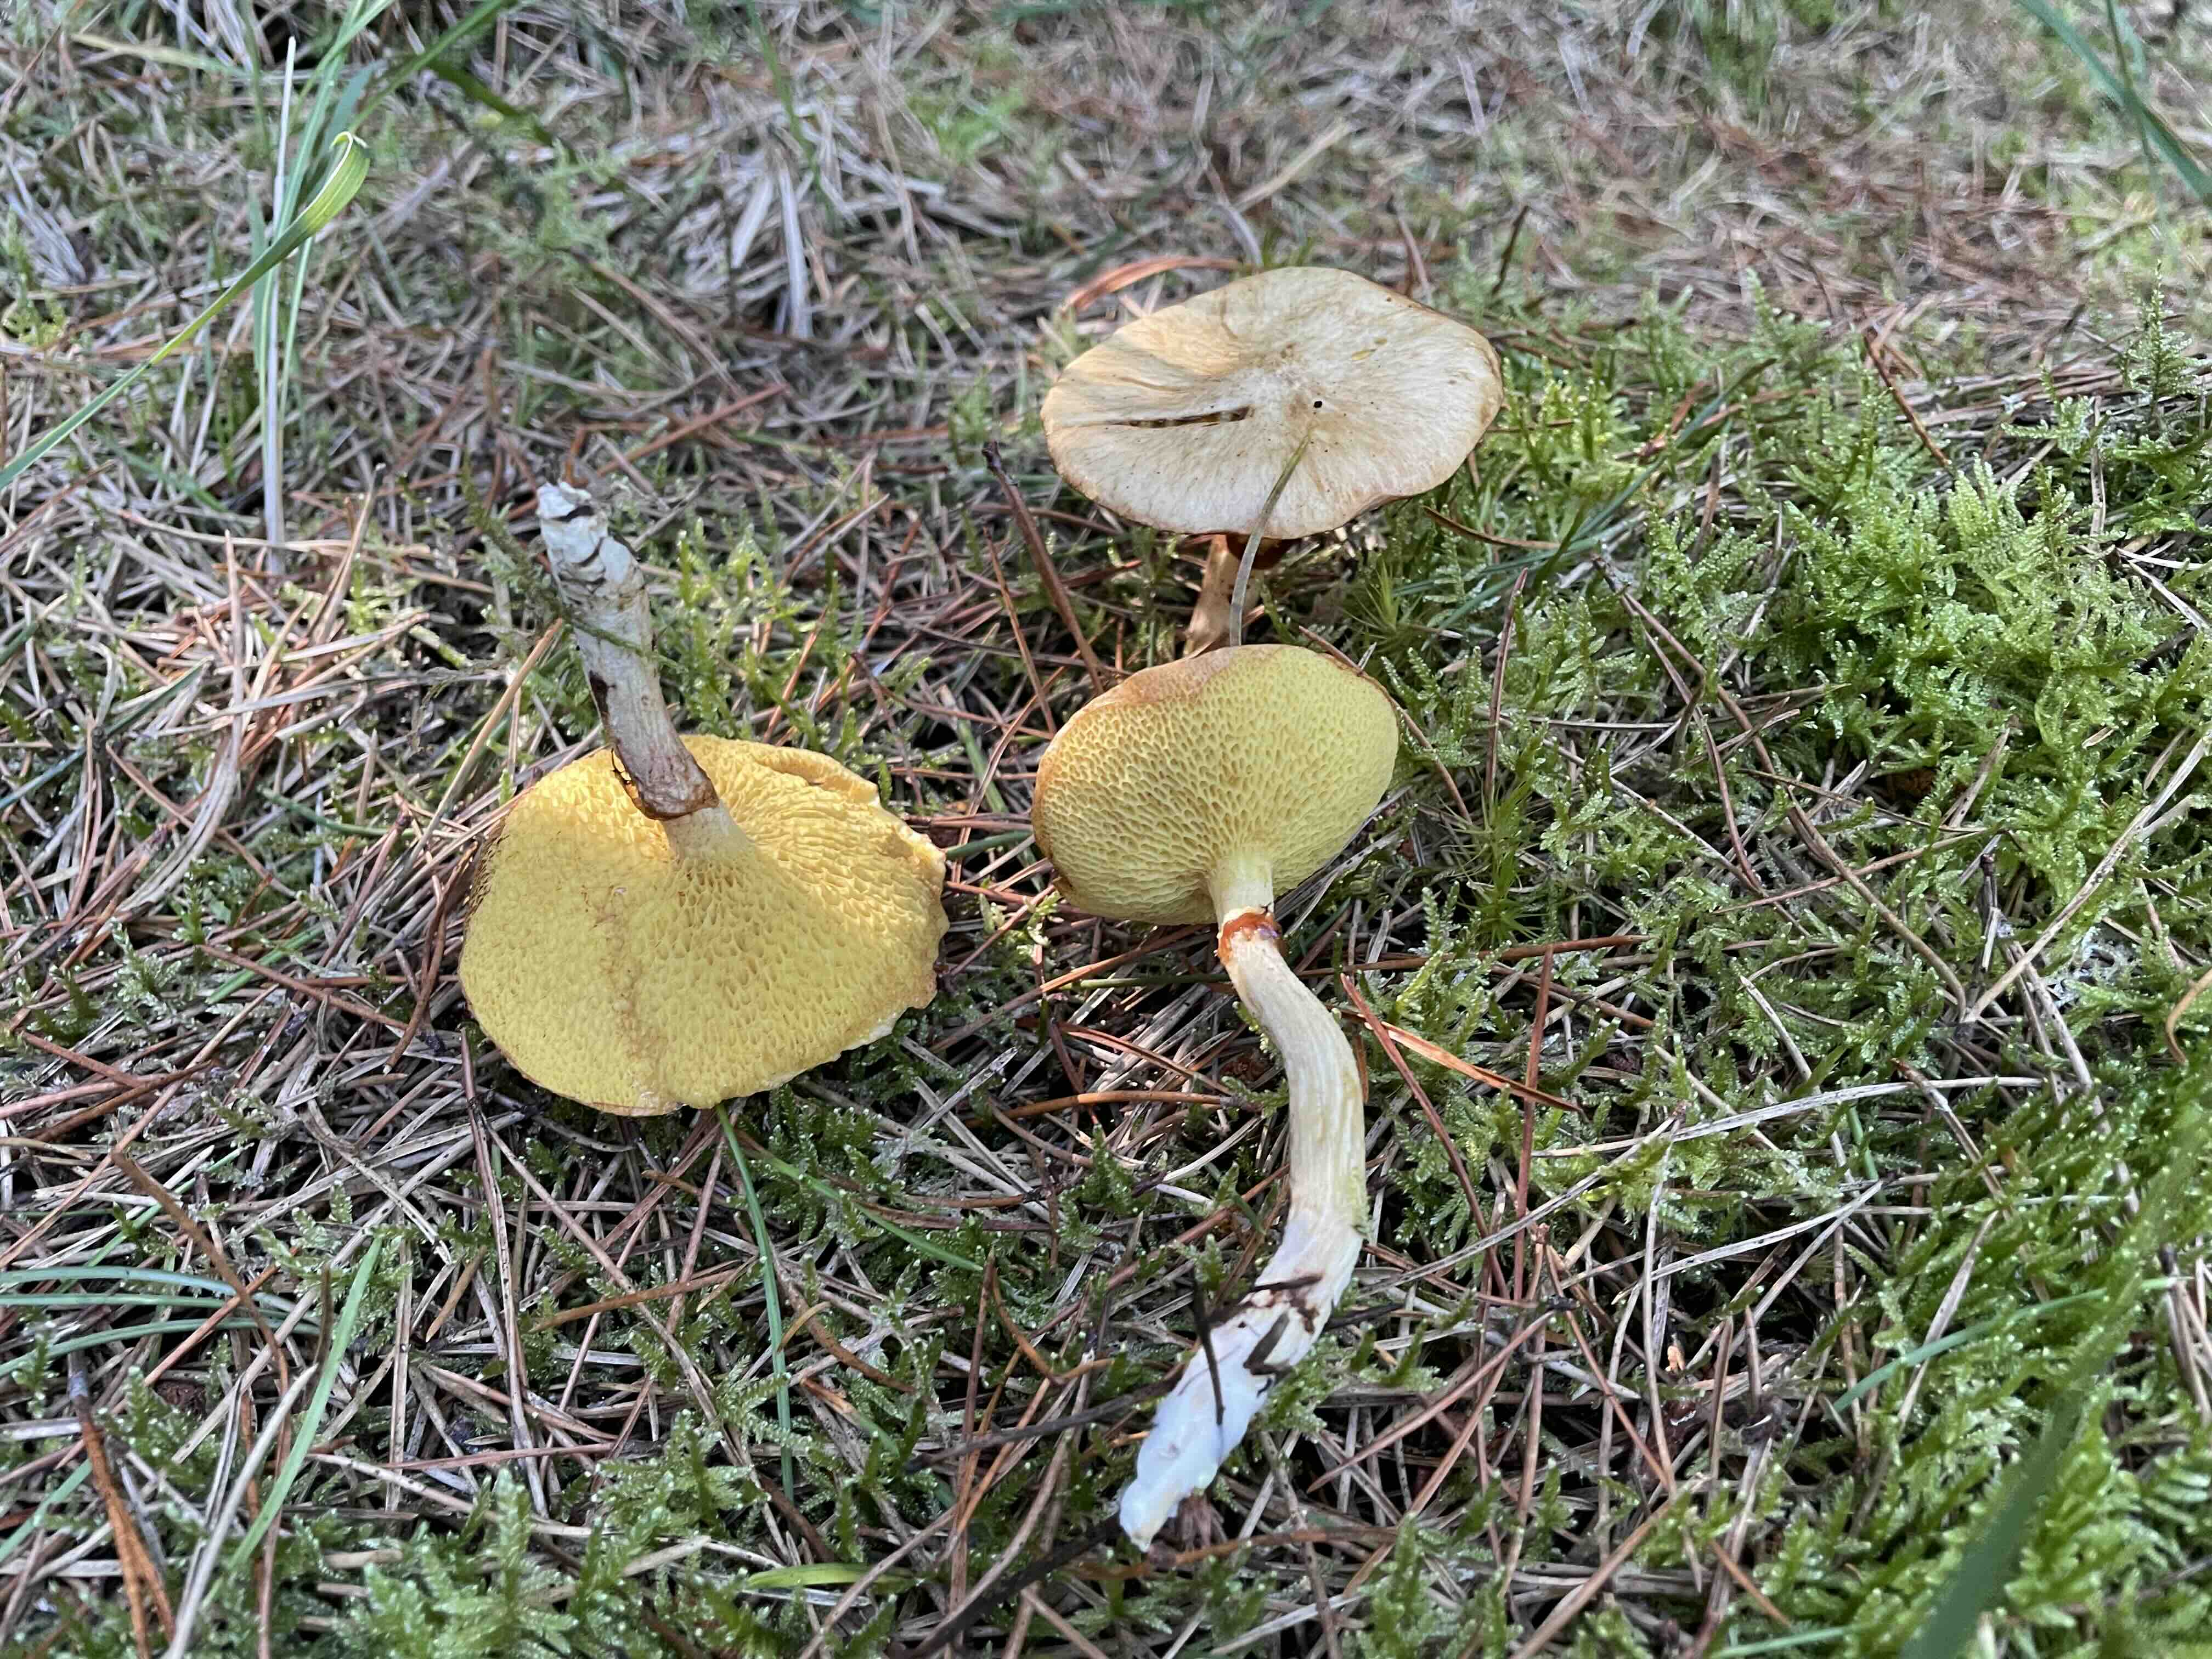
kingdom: Fungi
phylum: Basidiomycota
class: Agaricomycetes
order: Boletales
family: Suillaceae
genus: Suillus
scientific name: Suillus flavidus
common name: mose-slimrørhat
